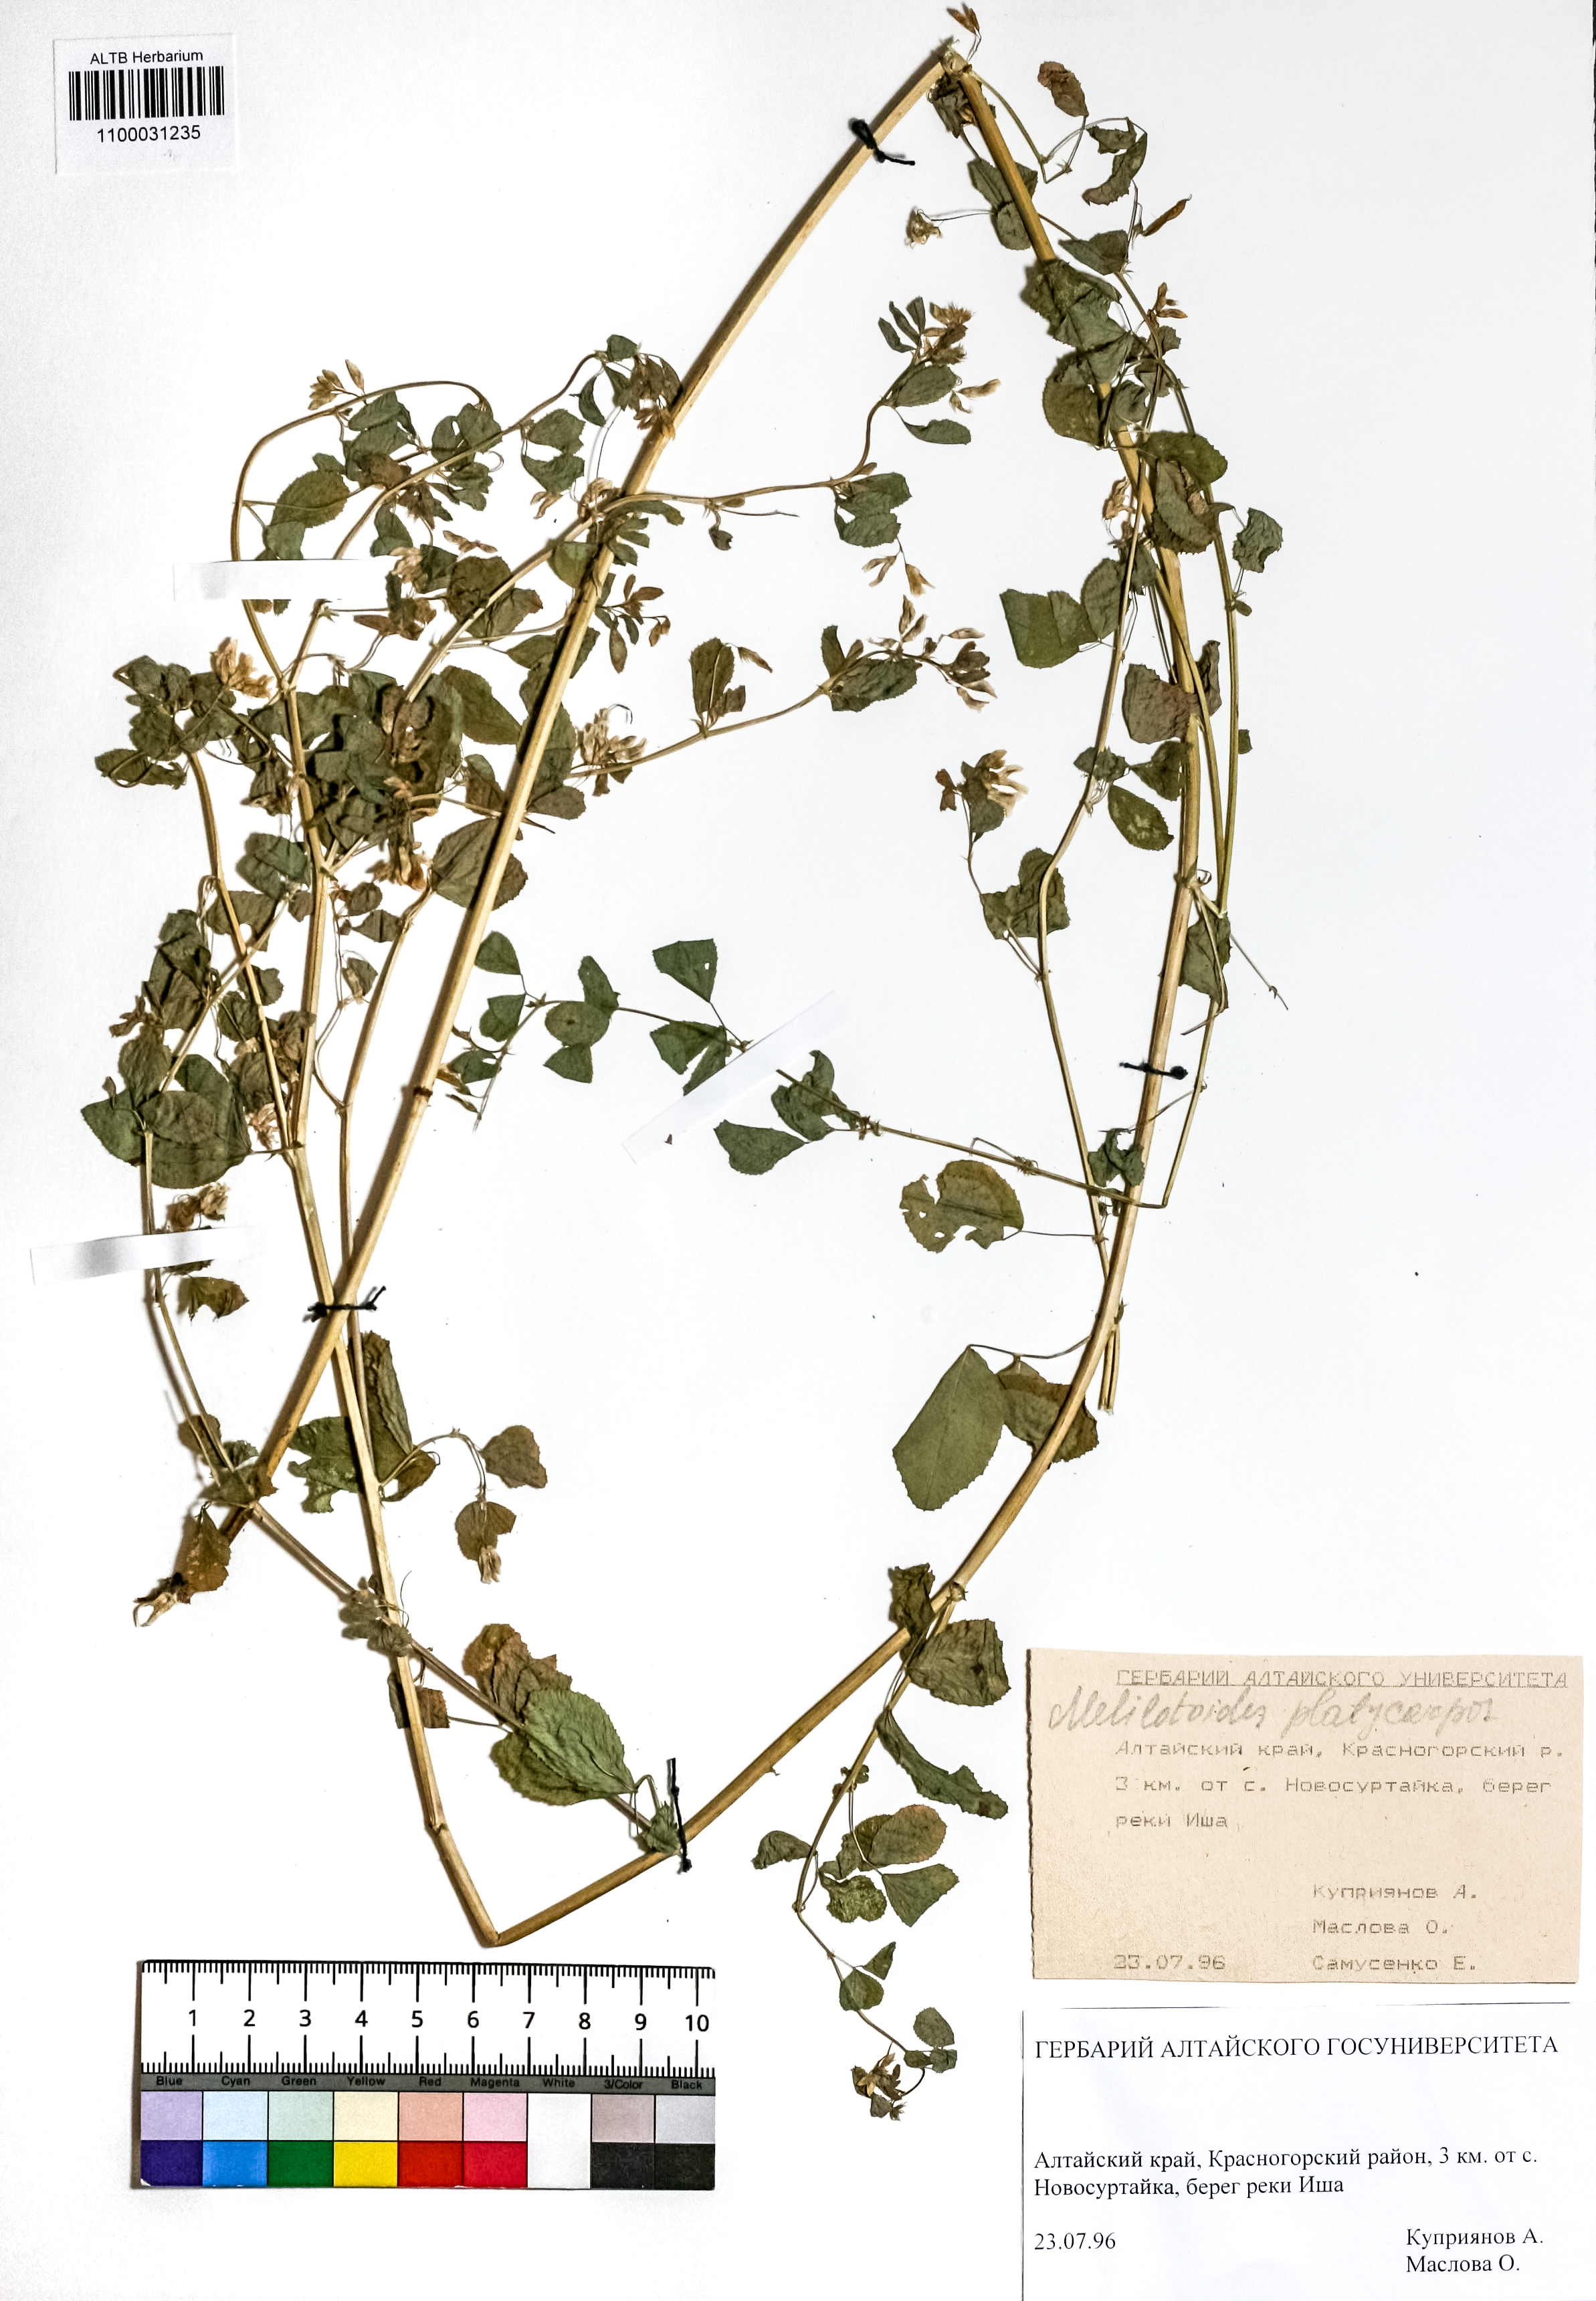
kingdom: Plantae
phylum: Tracheophyta
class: Magnoliopsida
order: Fabales
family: Fabaceae
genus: Medicago
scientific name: Medicago platycarpos
